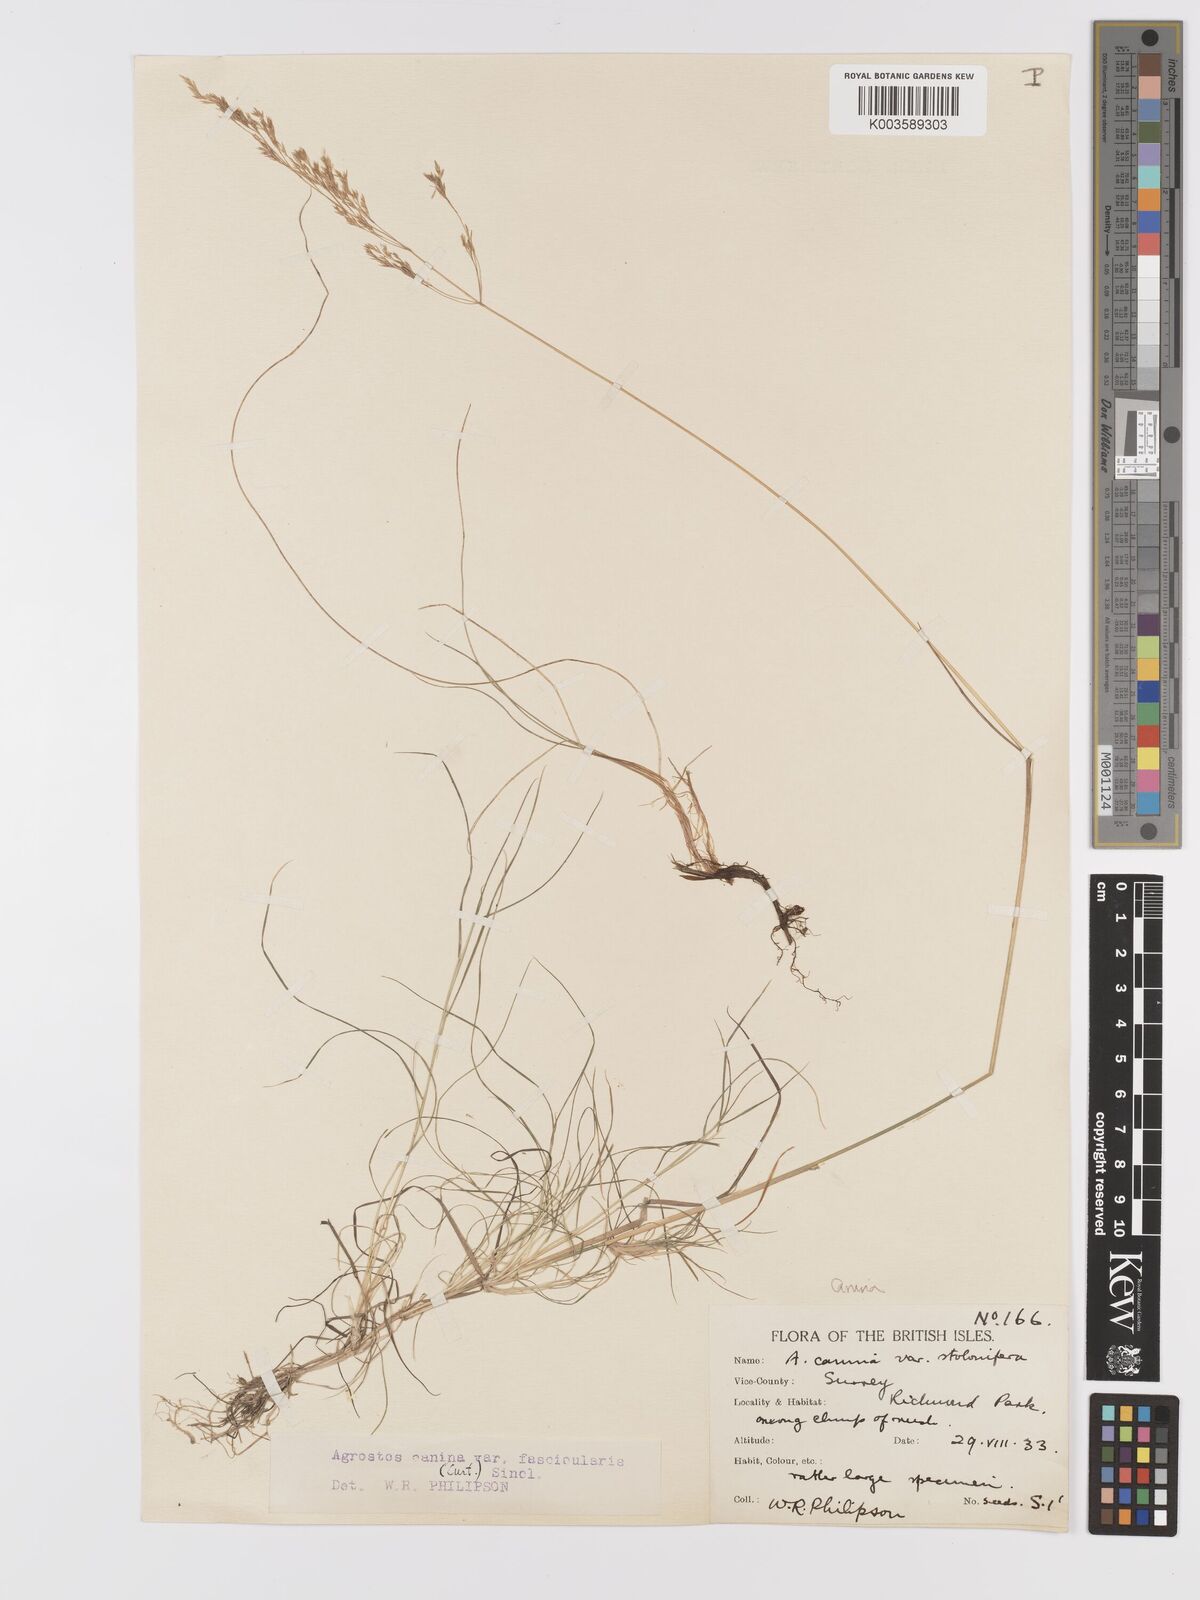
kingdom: Plantae
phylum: Tracheophyta
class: Liliopsida
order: Poales
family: Poaceae
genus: Agrostis
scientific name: Agrostis canina
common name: Velvet bent
